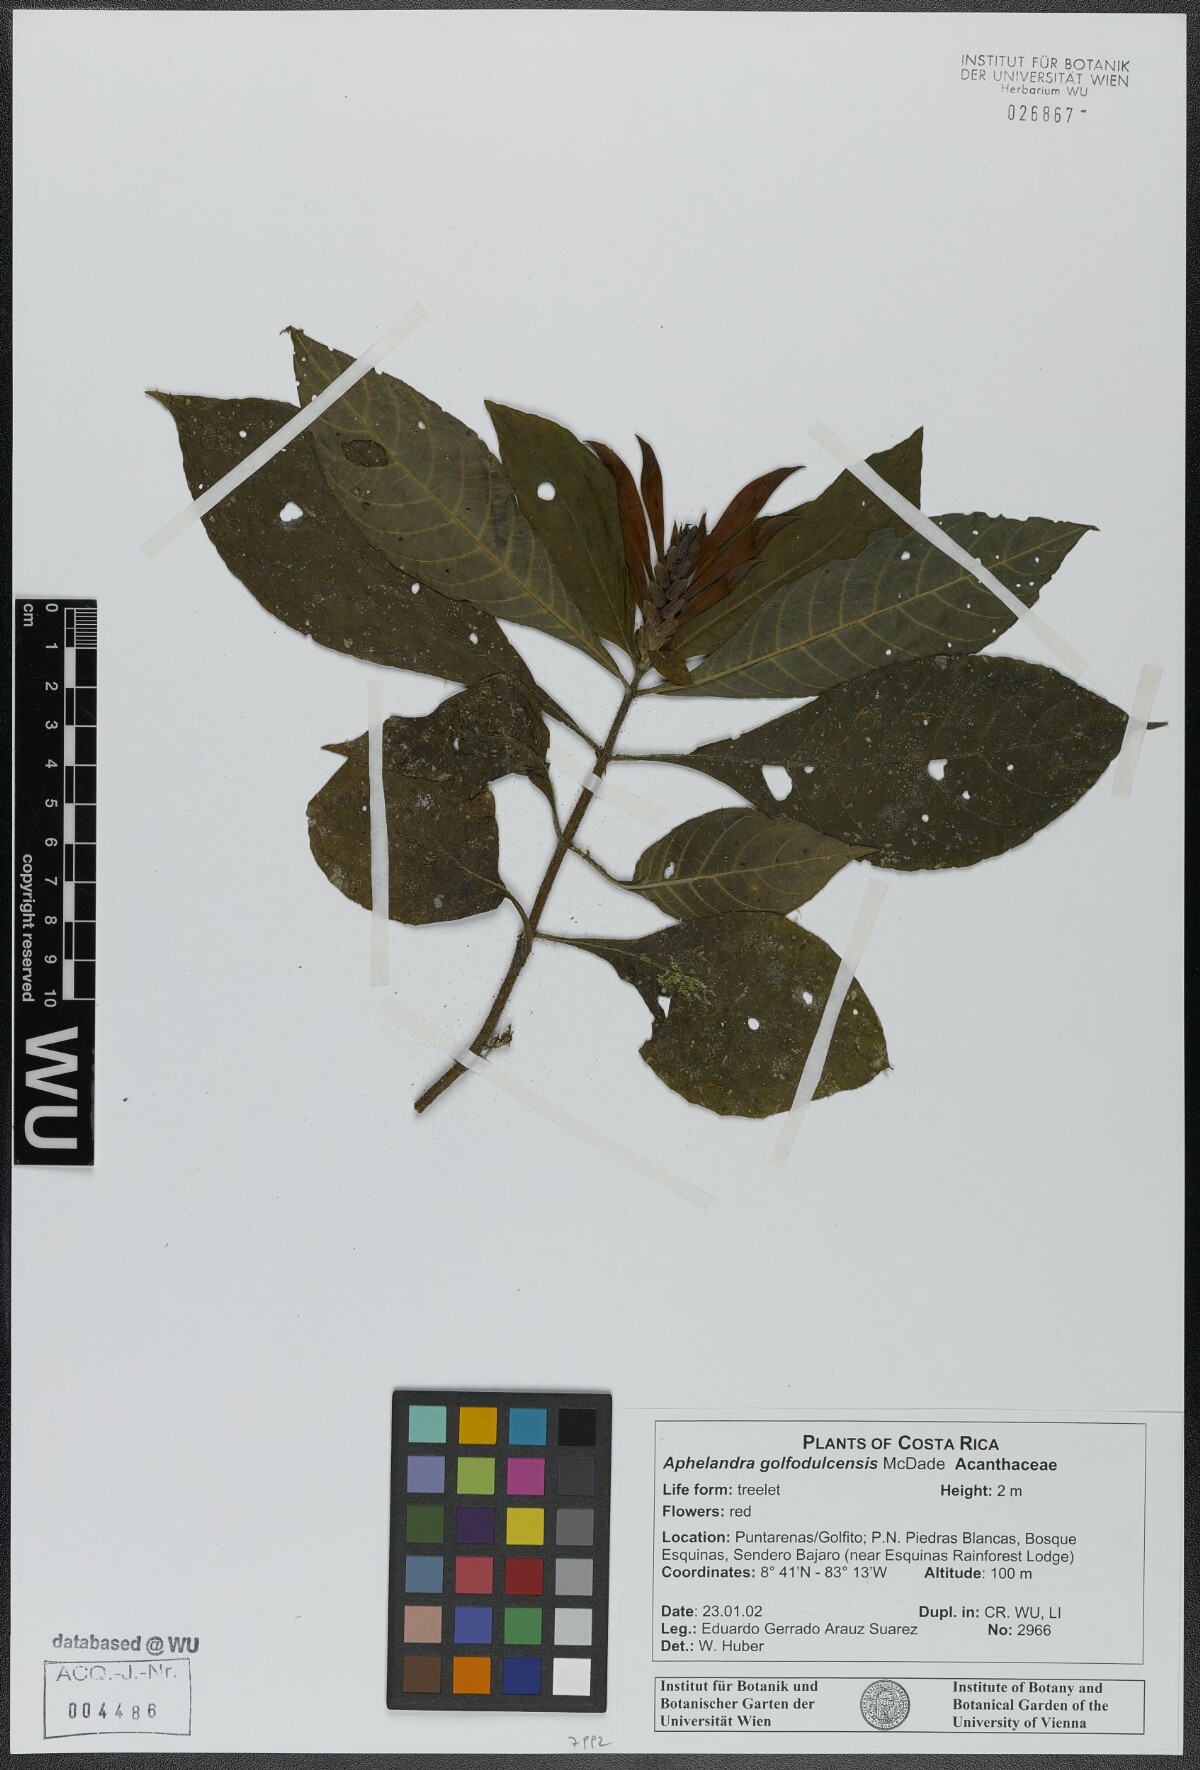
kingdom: Plantae
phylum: Tracheophyta
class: Magnoliopsida
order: Lamiales
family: Acanthaceae
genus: Aphelandra
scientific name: Aphelandra golfodulcensis
